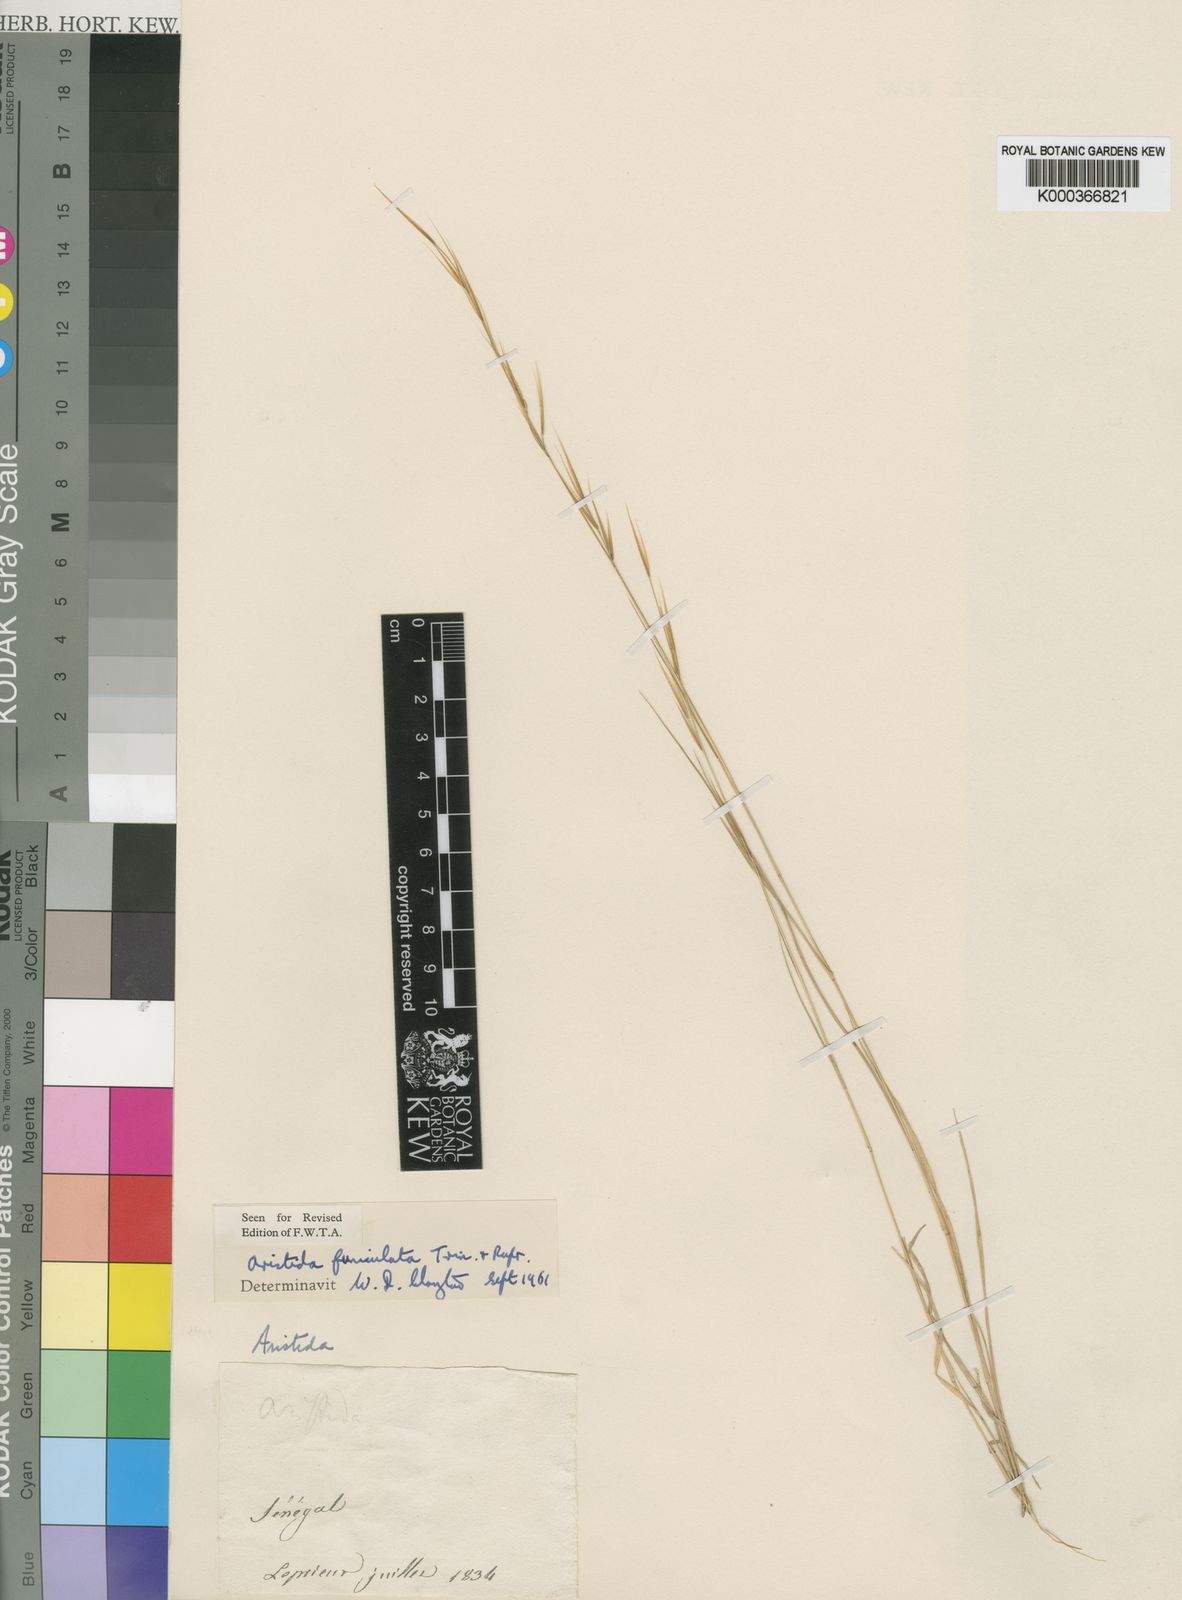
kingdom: Plantae
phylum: Tracheophyta
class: Liliopsida
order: Poales
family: Poaceae
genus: Aristida
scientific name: Aristida funiculata
